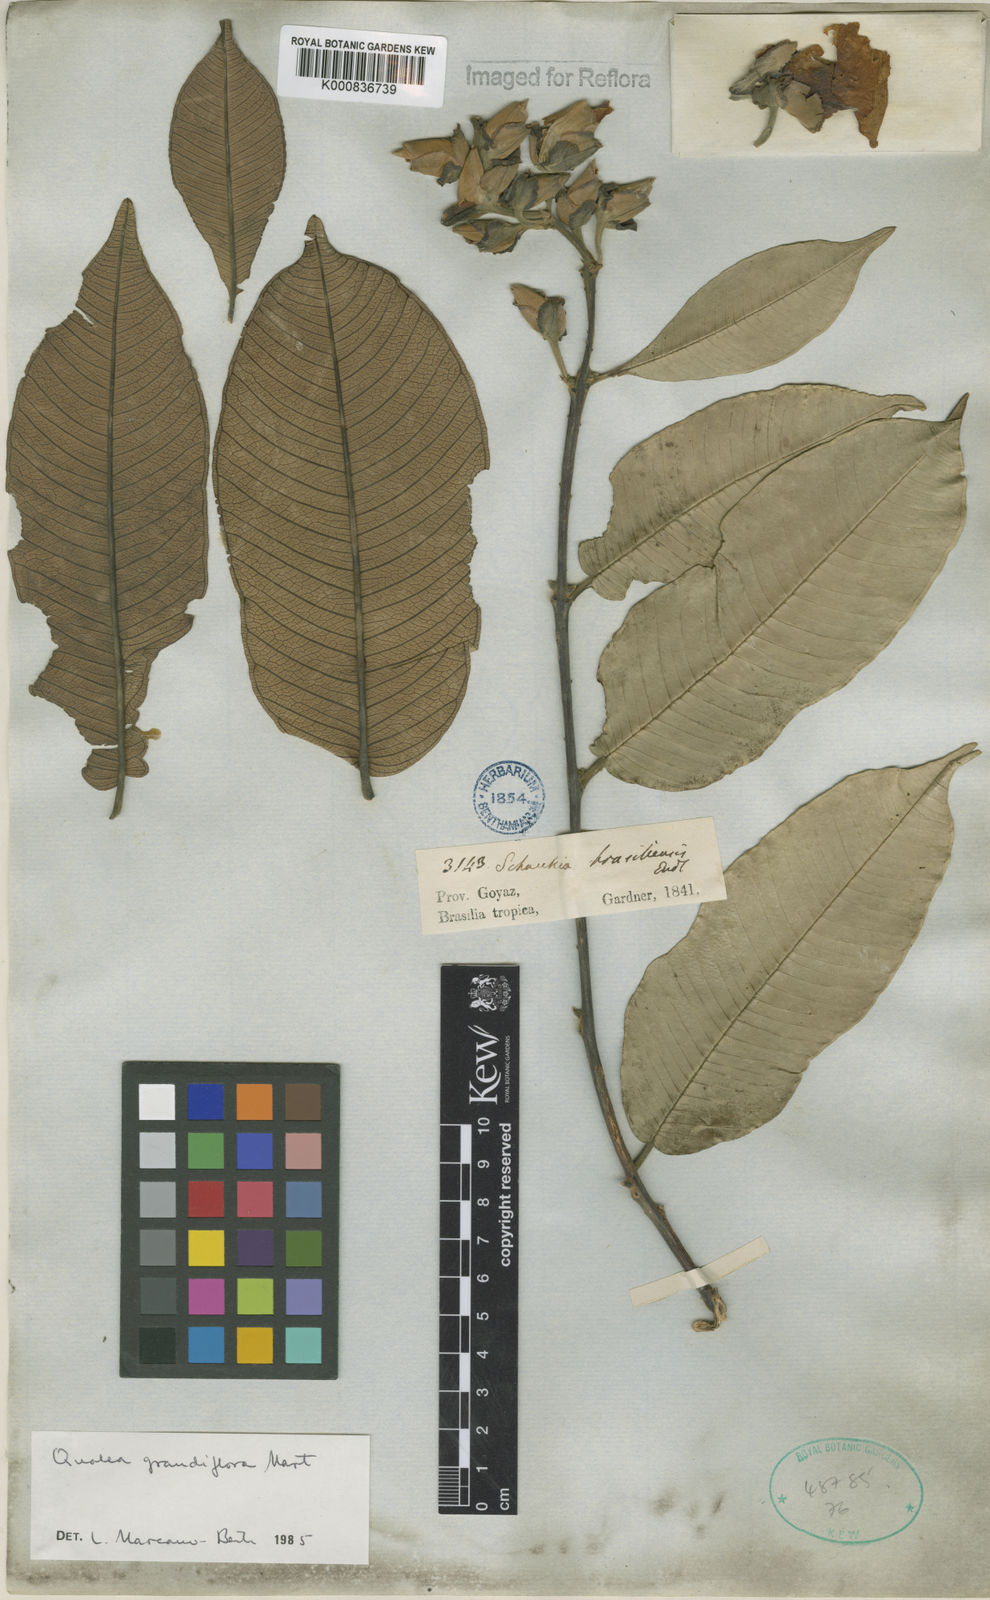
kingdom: Plantae
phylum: Tracheophyta
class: Magnoliopsida
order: Myrtales
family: Vochysiaceae
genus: Qualea
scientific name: Qualea grandiflora
